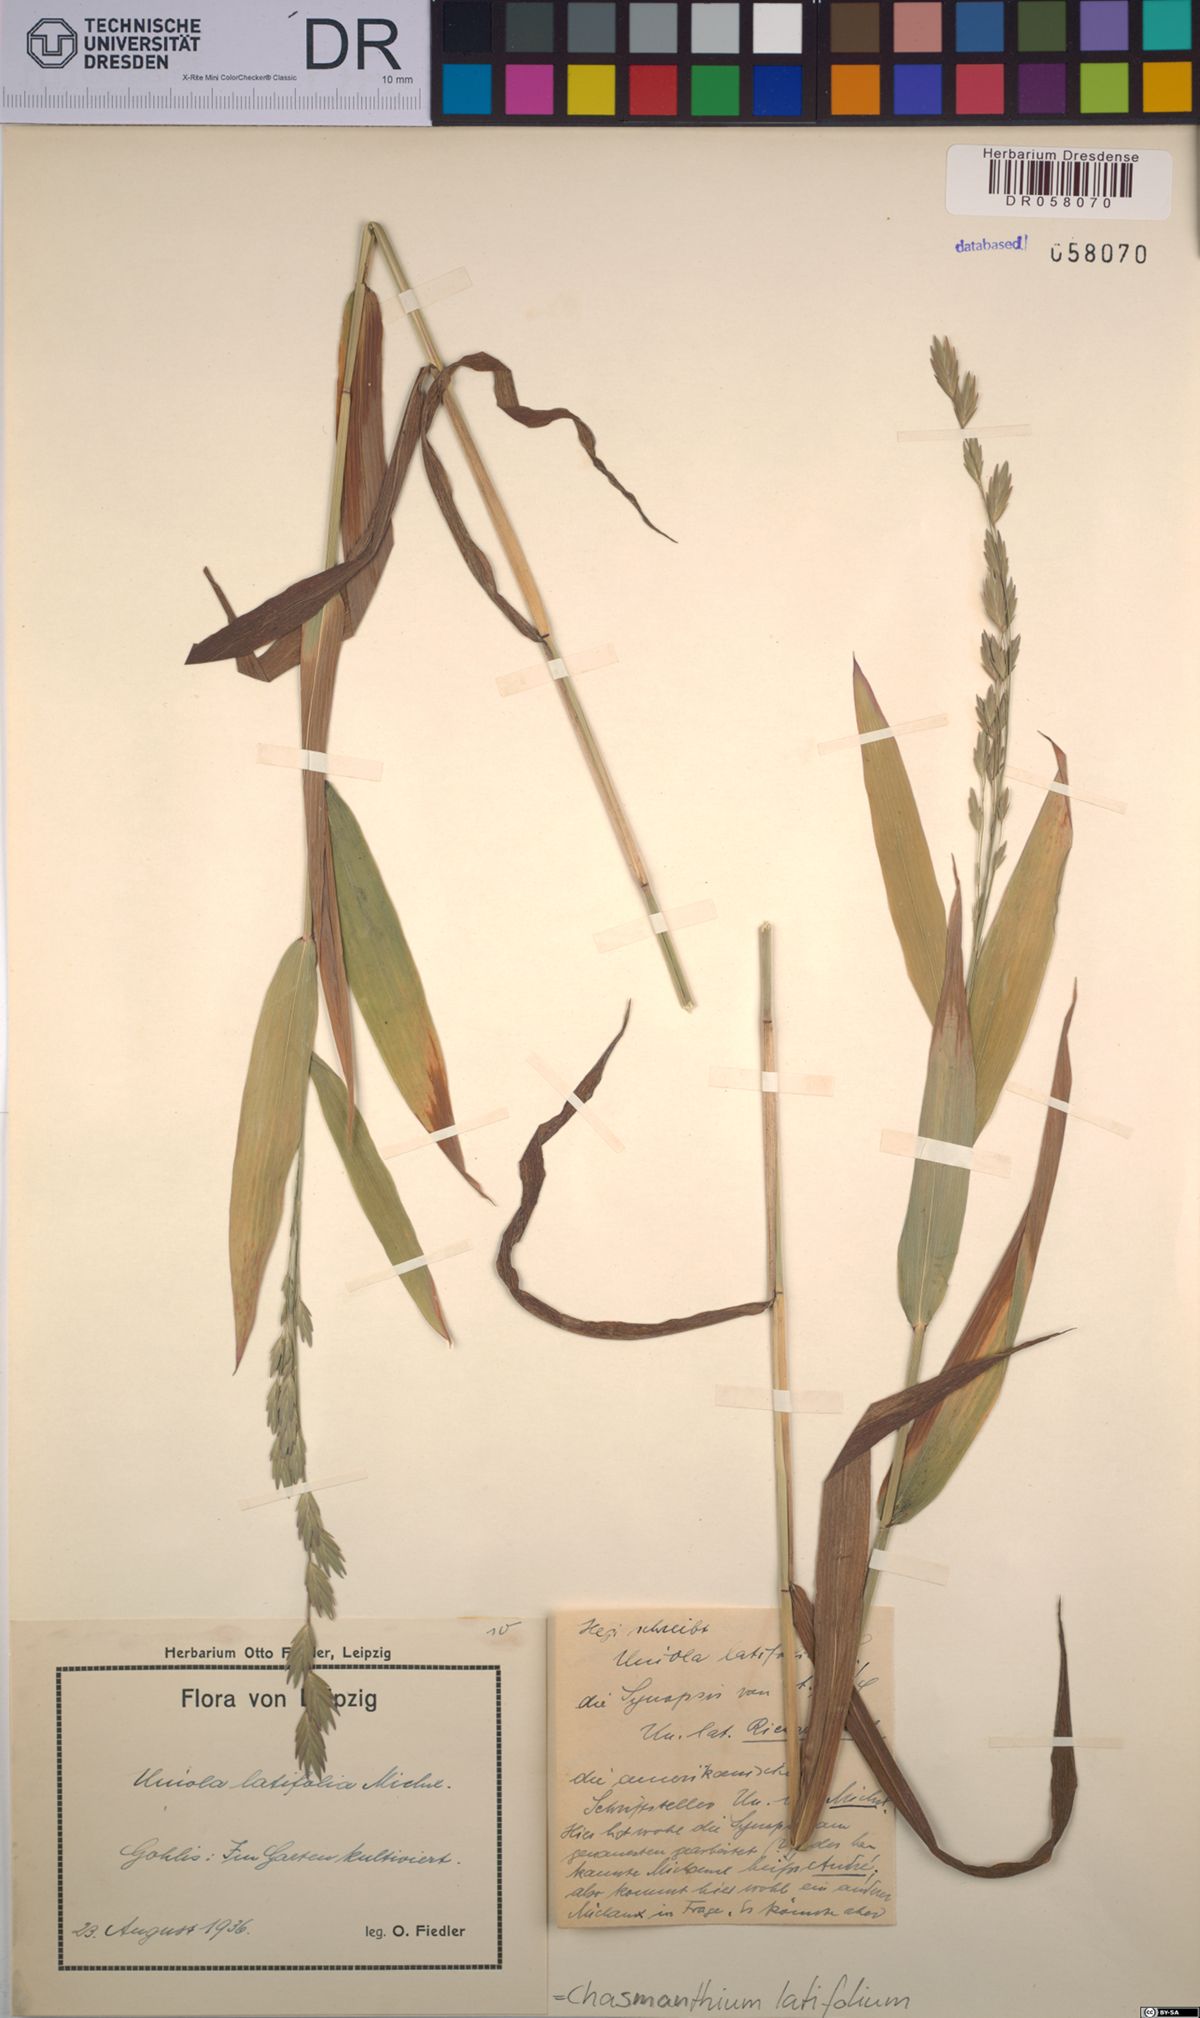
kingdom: Plantae
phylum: Tracheophyta
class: Liliopsida
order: Poales
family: Poaceae
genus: Chasmanthium
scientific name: Chasmanthium latifolium
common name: Broad-leaved chasmanthium
